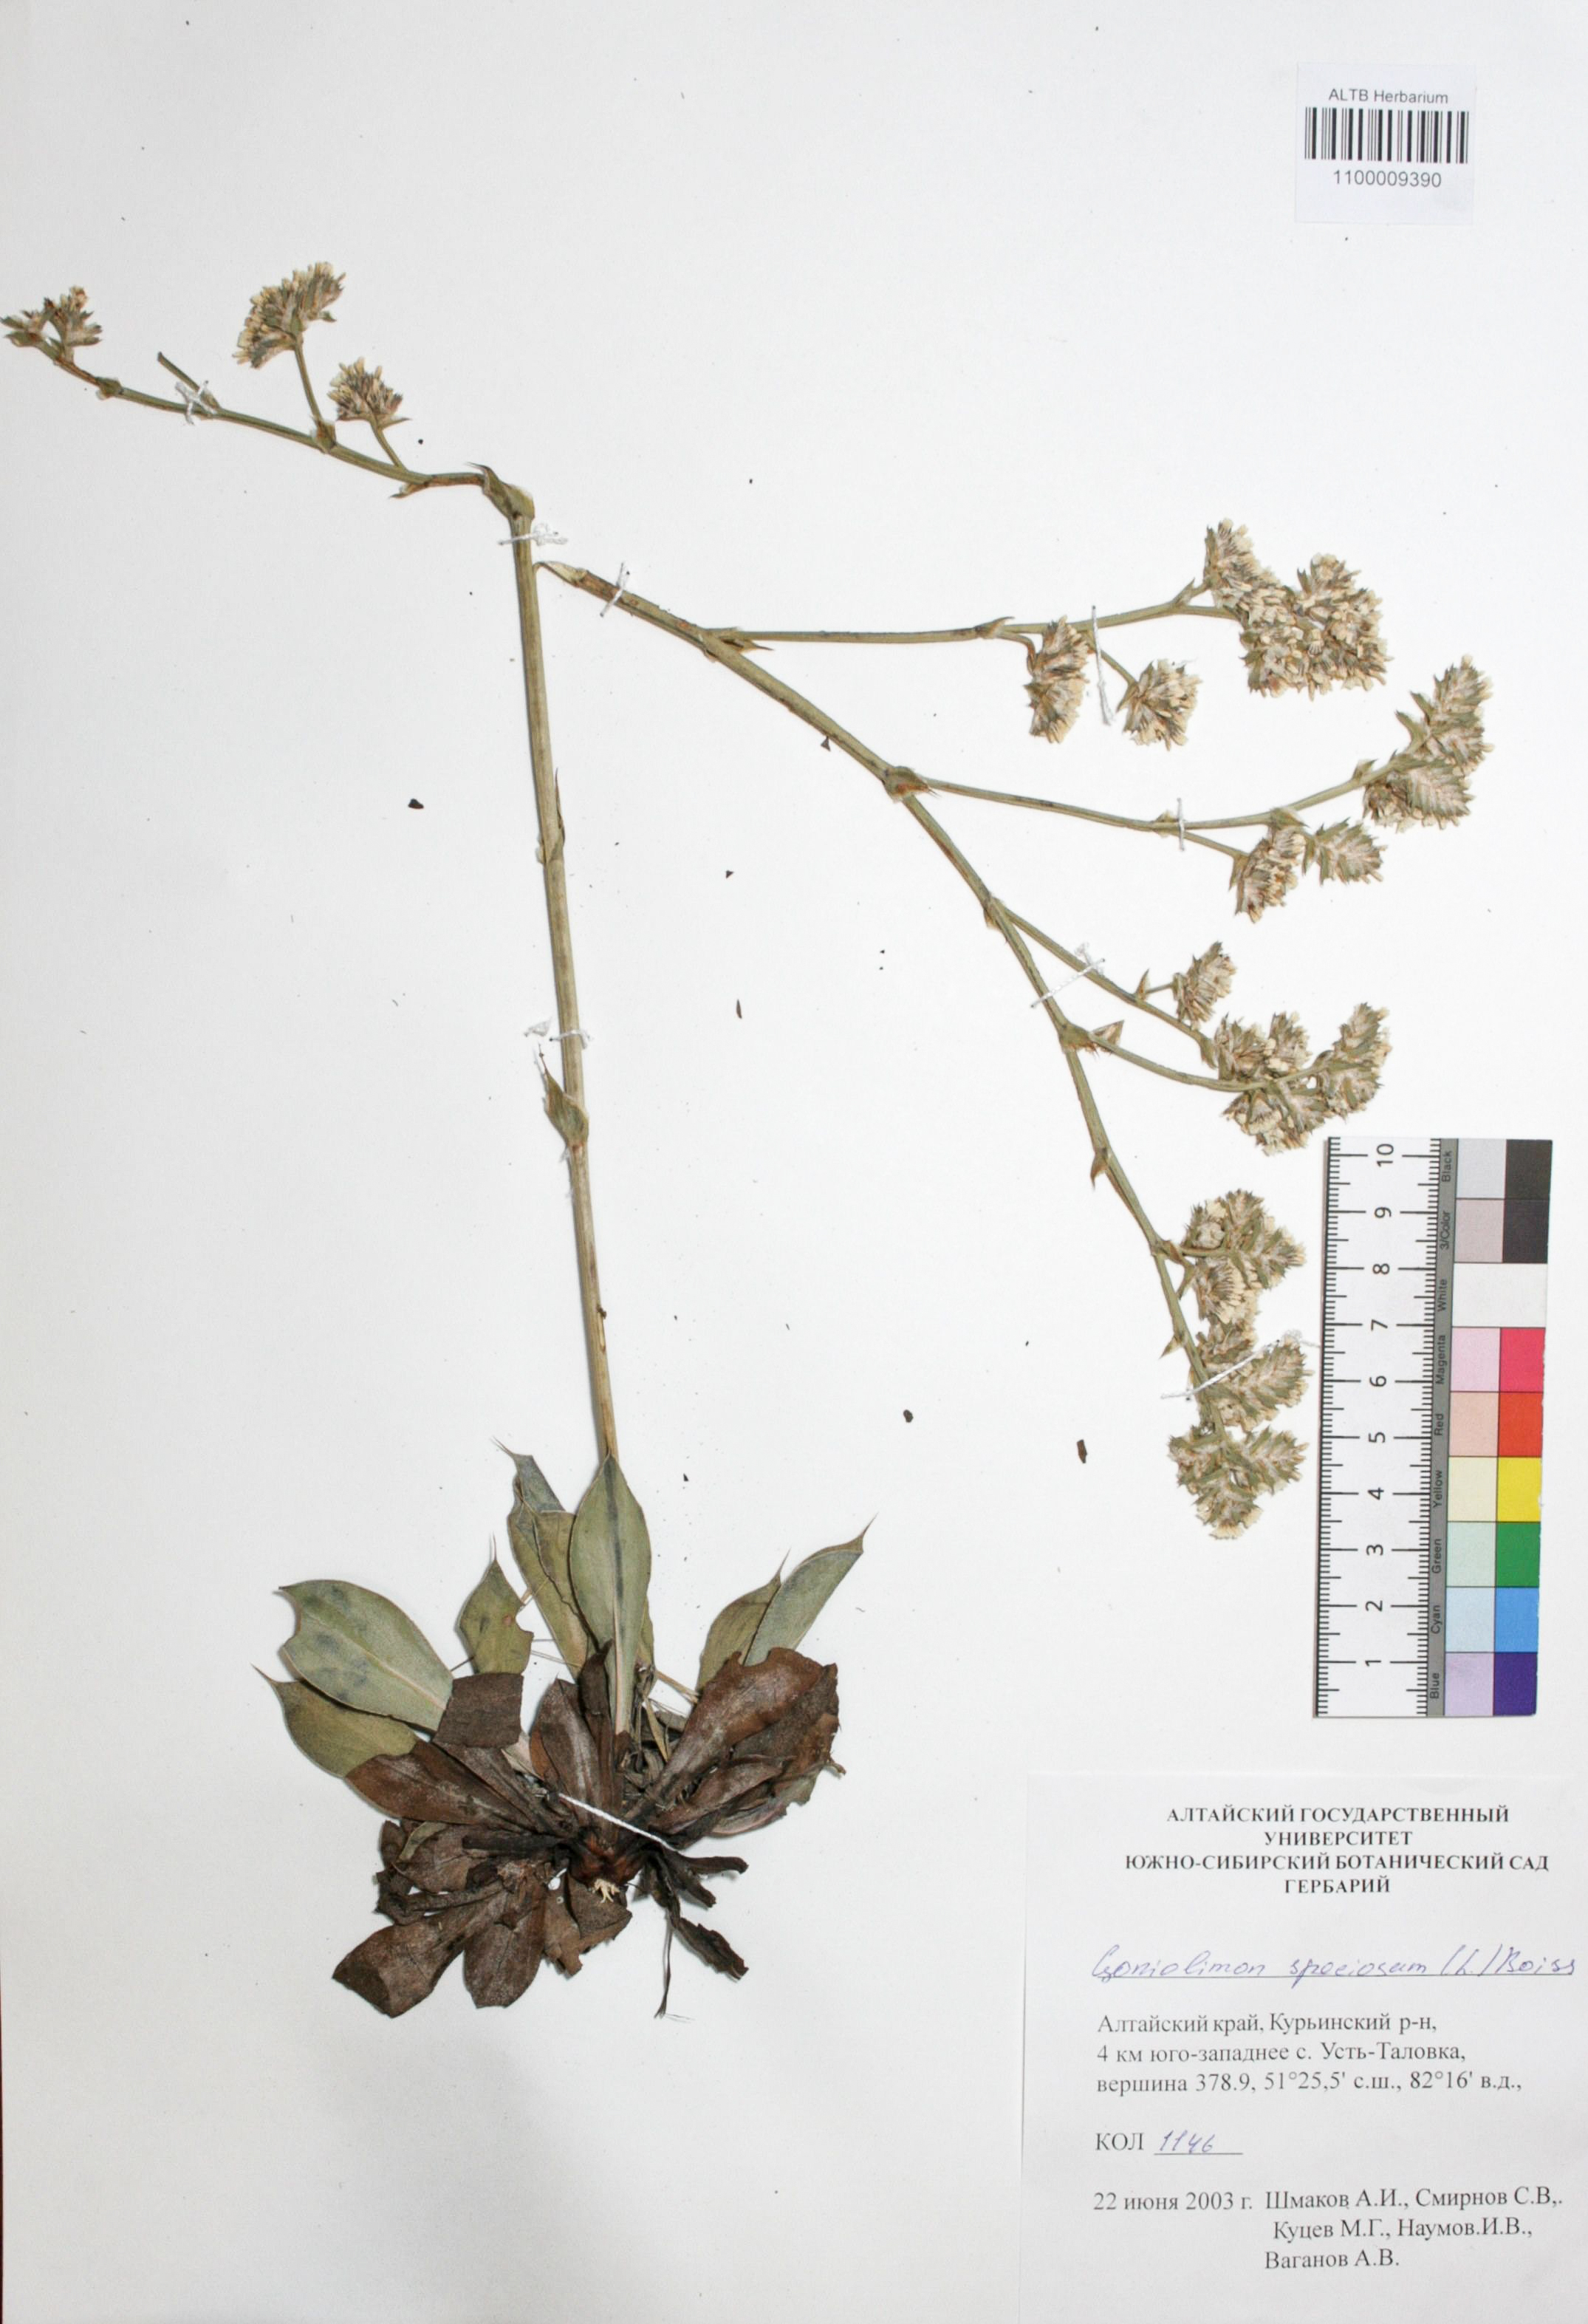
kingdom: Plantae
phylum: Tracheophyta
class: Magnoliopsida
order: Caryophyllales
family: Plumbaginaceae
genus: Goniolimon
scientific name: Goniolimon speciosum
